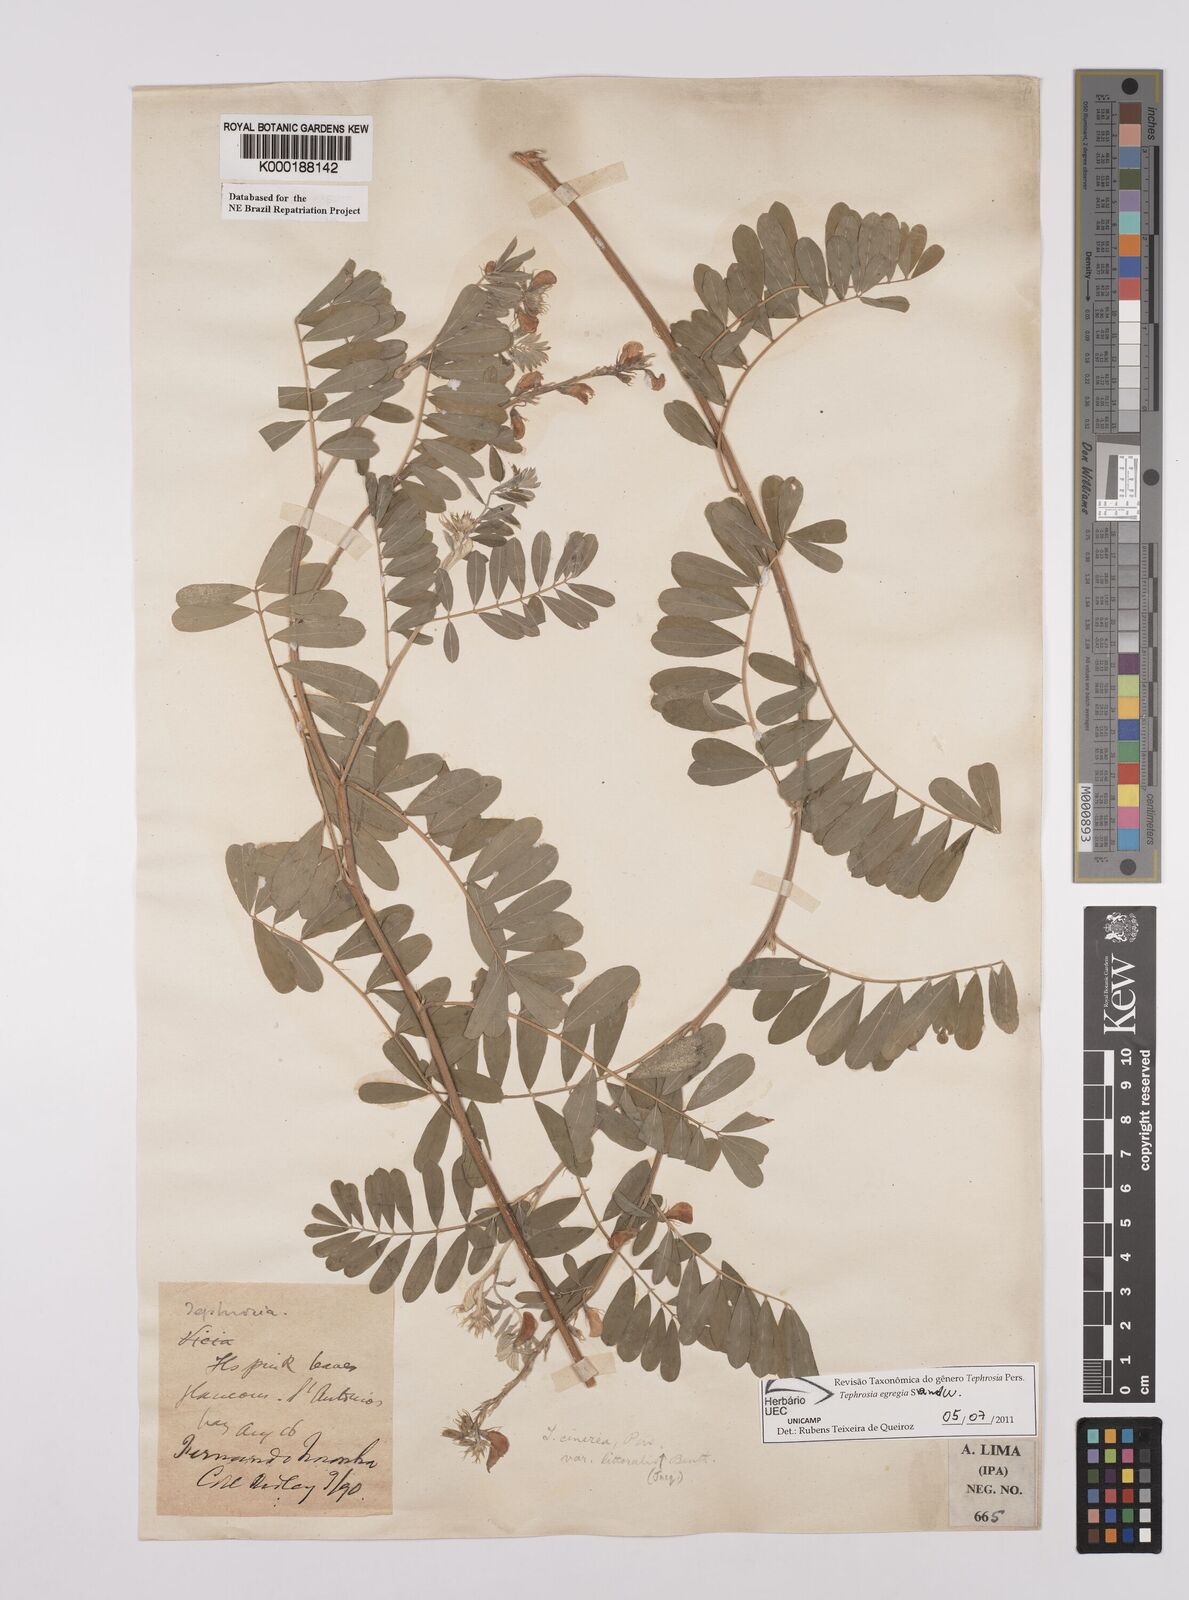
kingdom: Plantae
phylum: Tracheophyta
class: Magnoliopsida
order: Fabales
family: Fabaceae
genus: Tephrosia
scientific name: Tephrosia egregia
